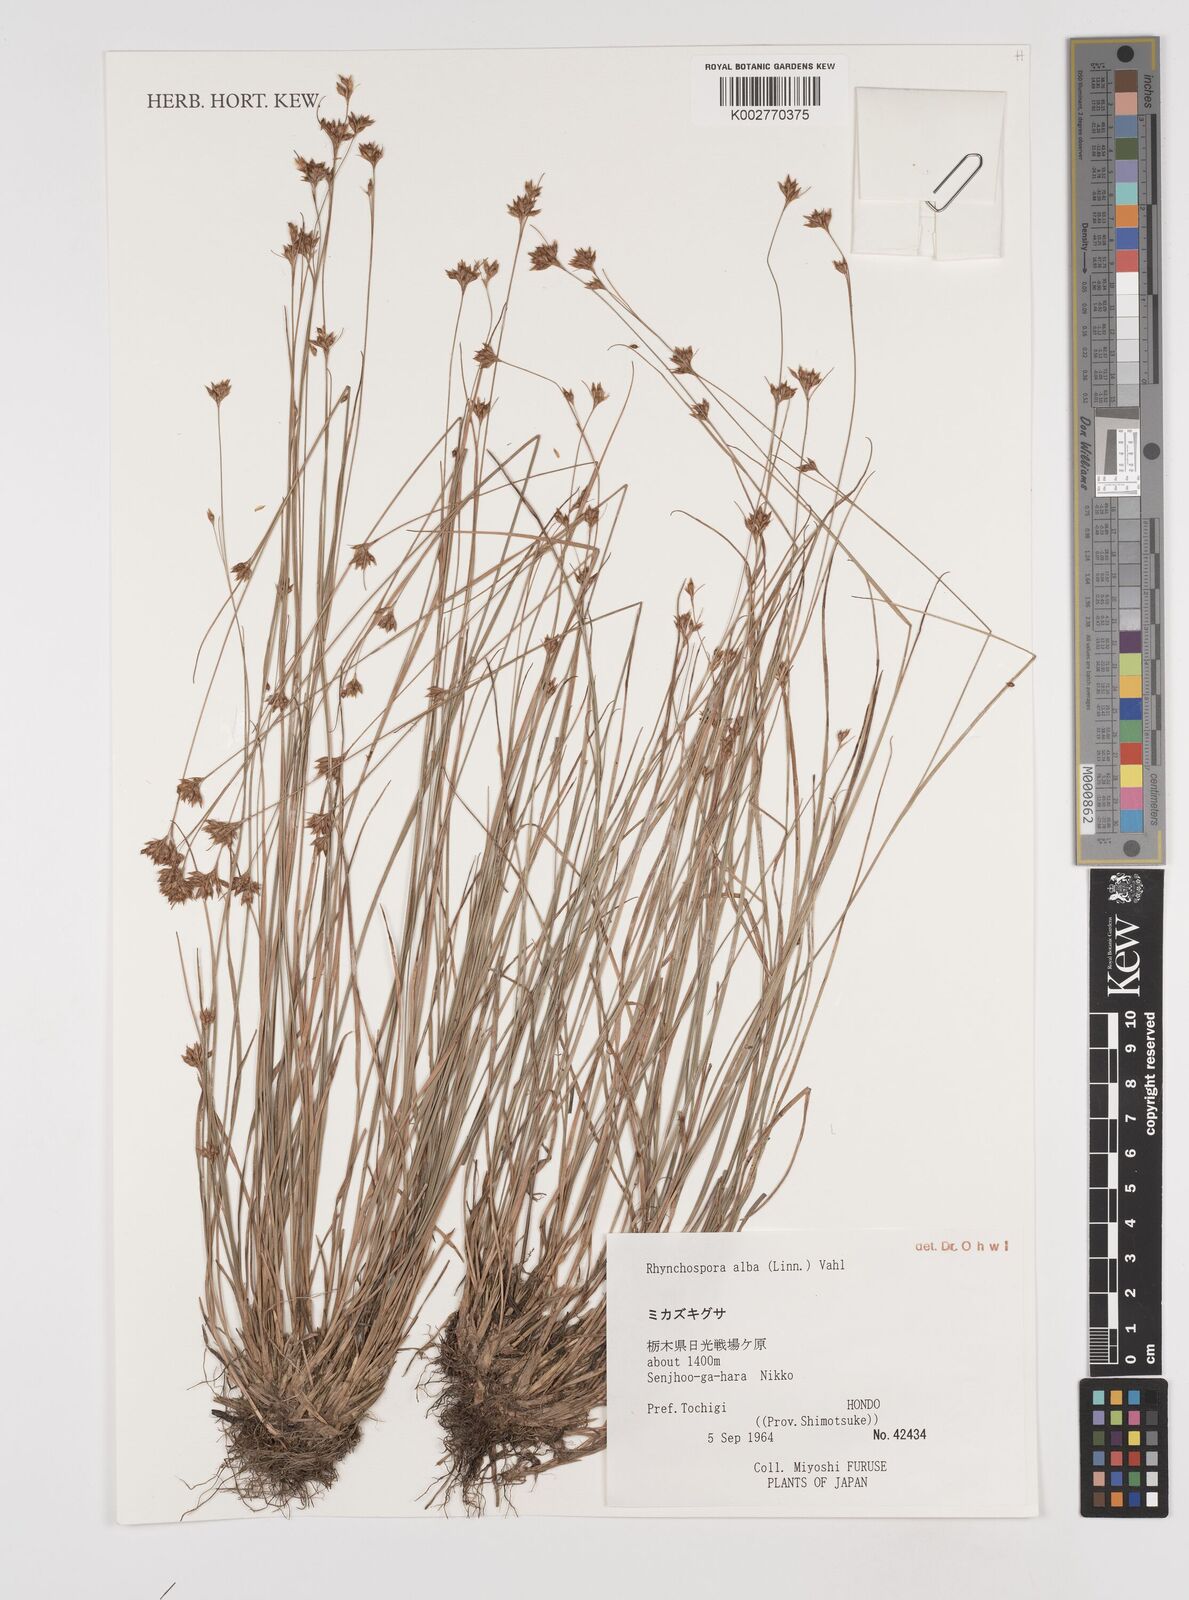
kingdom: Plantae
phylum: Tracheophyta
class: Liliopsida
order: Poales
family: Cyperaceae
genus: Rhynchospora
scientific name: Rhynchospora alba
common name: White beak-sedge
